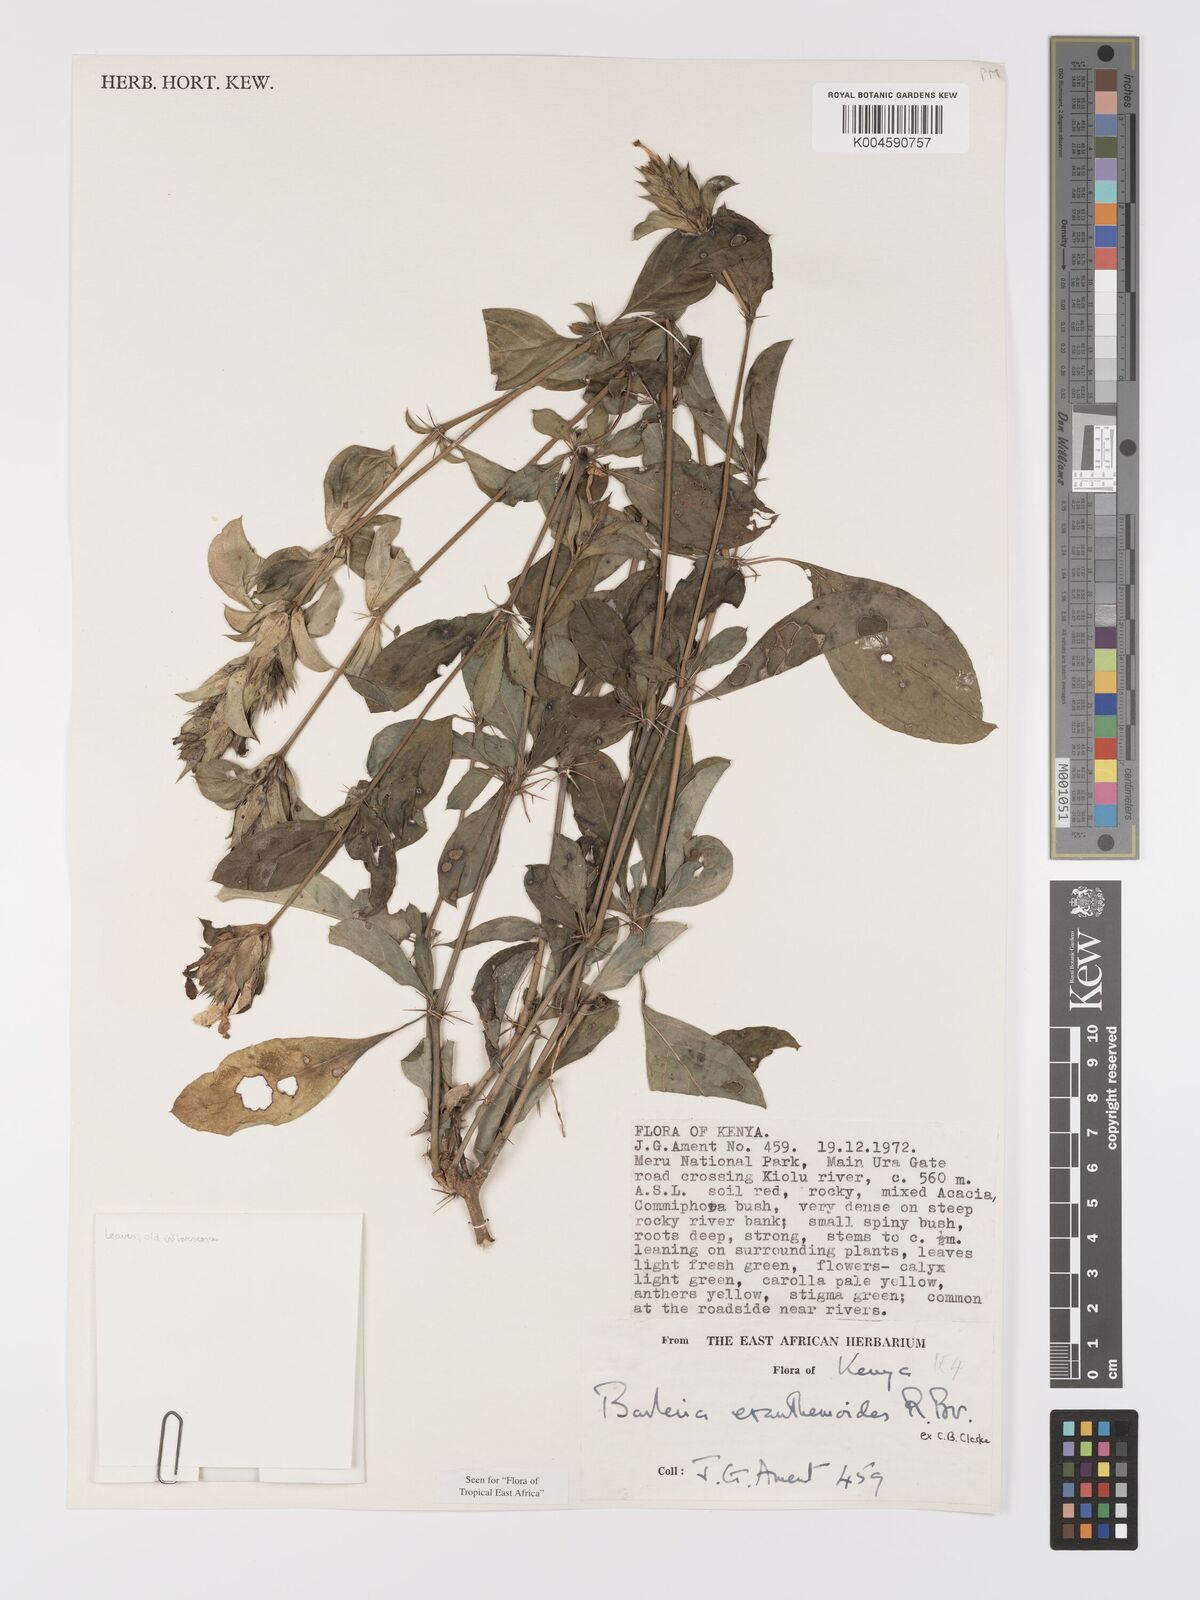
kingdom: Plantae
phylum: Tracheophyta
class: Magnoliopsida
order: Lamiales
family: Acanthaceae
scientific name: Acanthaceae
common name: Acanthaceae
